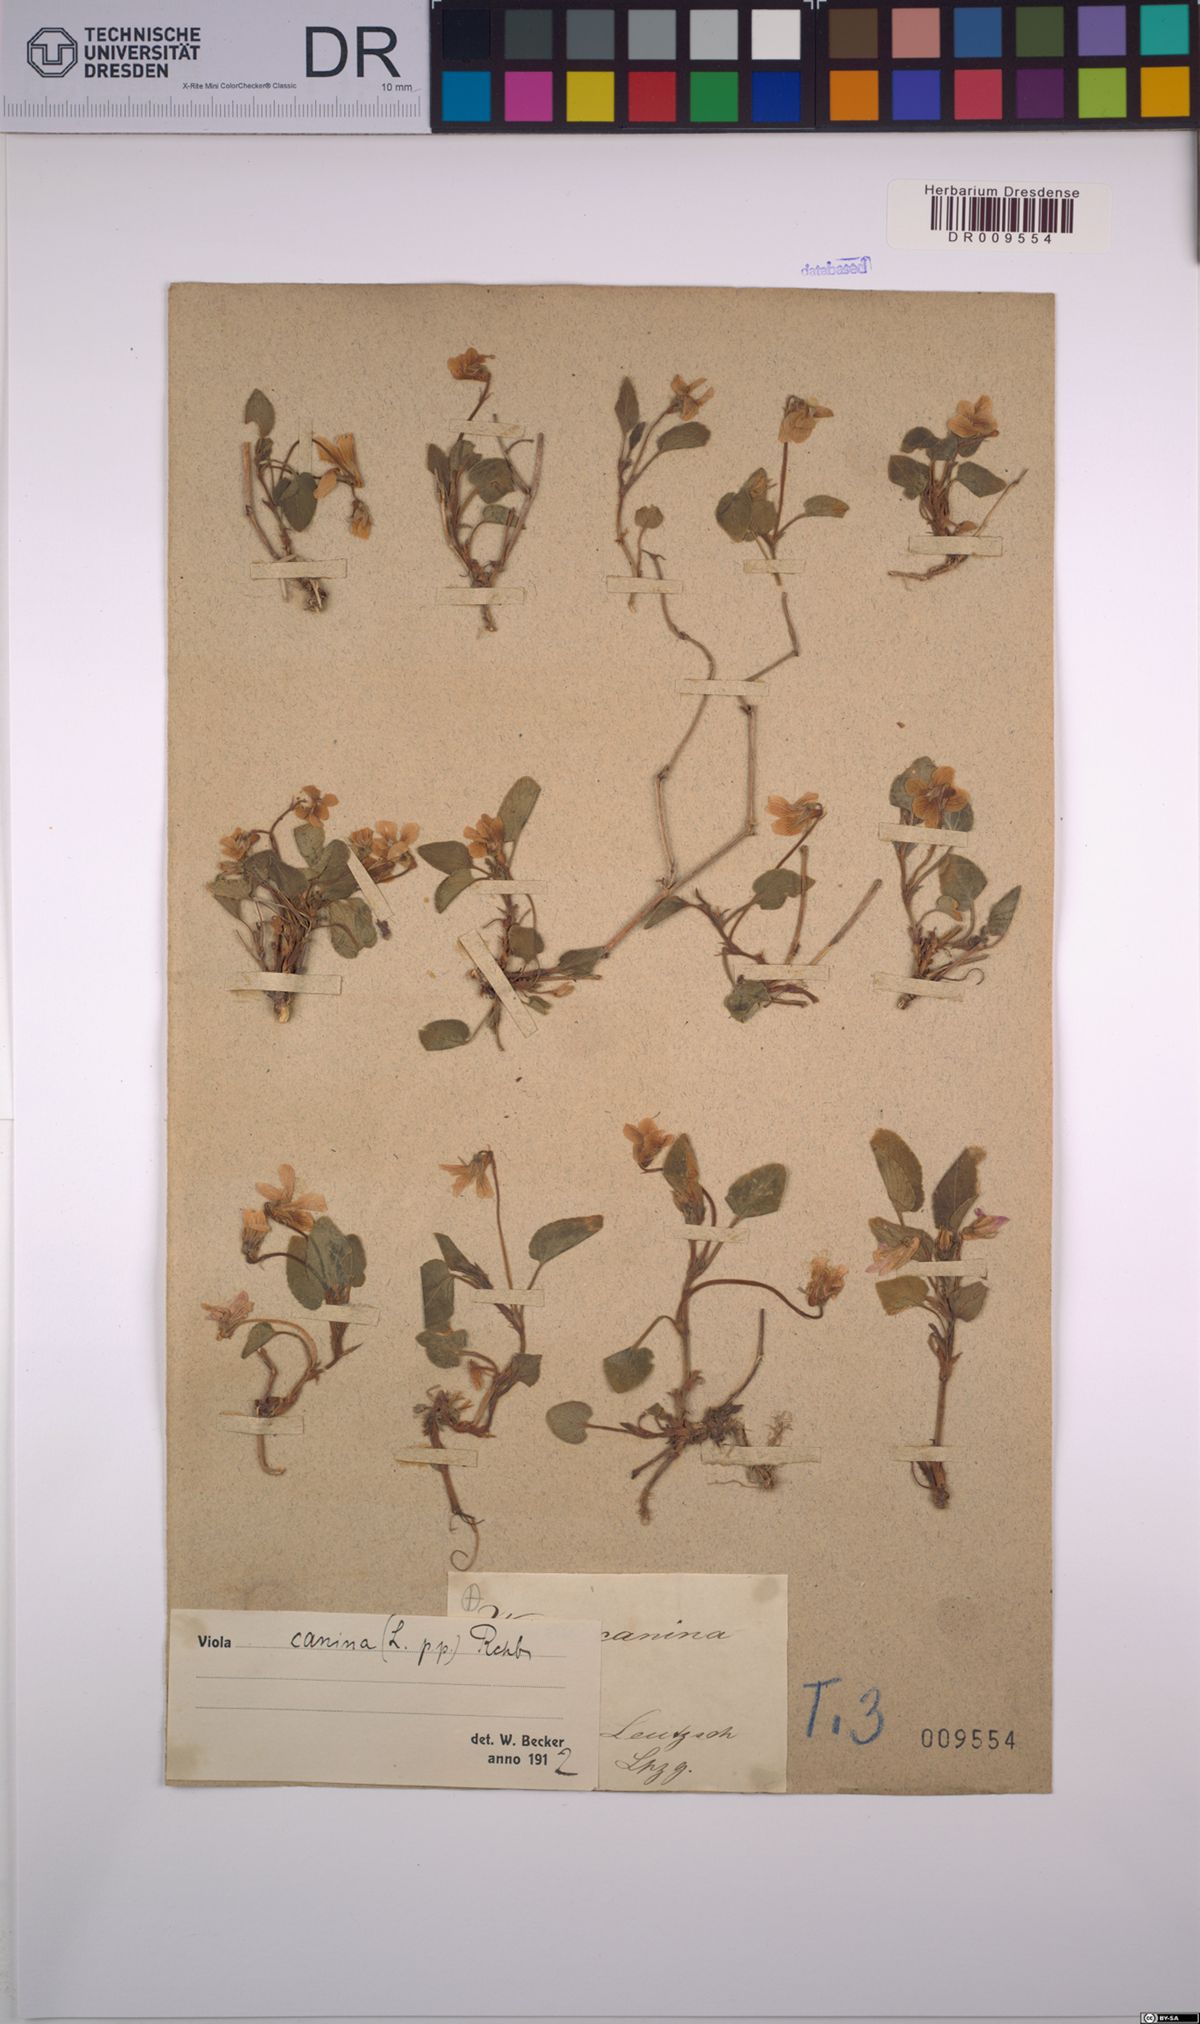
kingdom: Plantae
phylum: Tracheophyta
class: Magnoliopsida
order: Malpighiales
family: Violaceae
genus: Viola
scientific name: Viola canina
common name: Heath dog-violet
